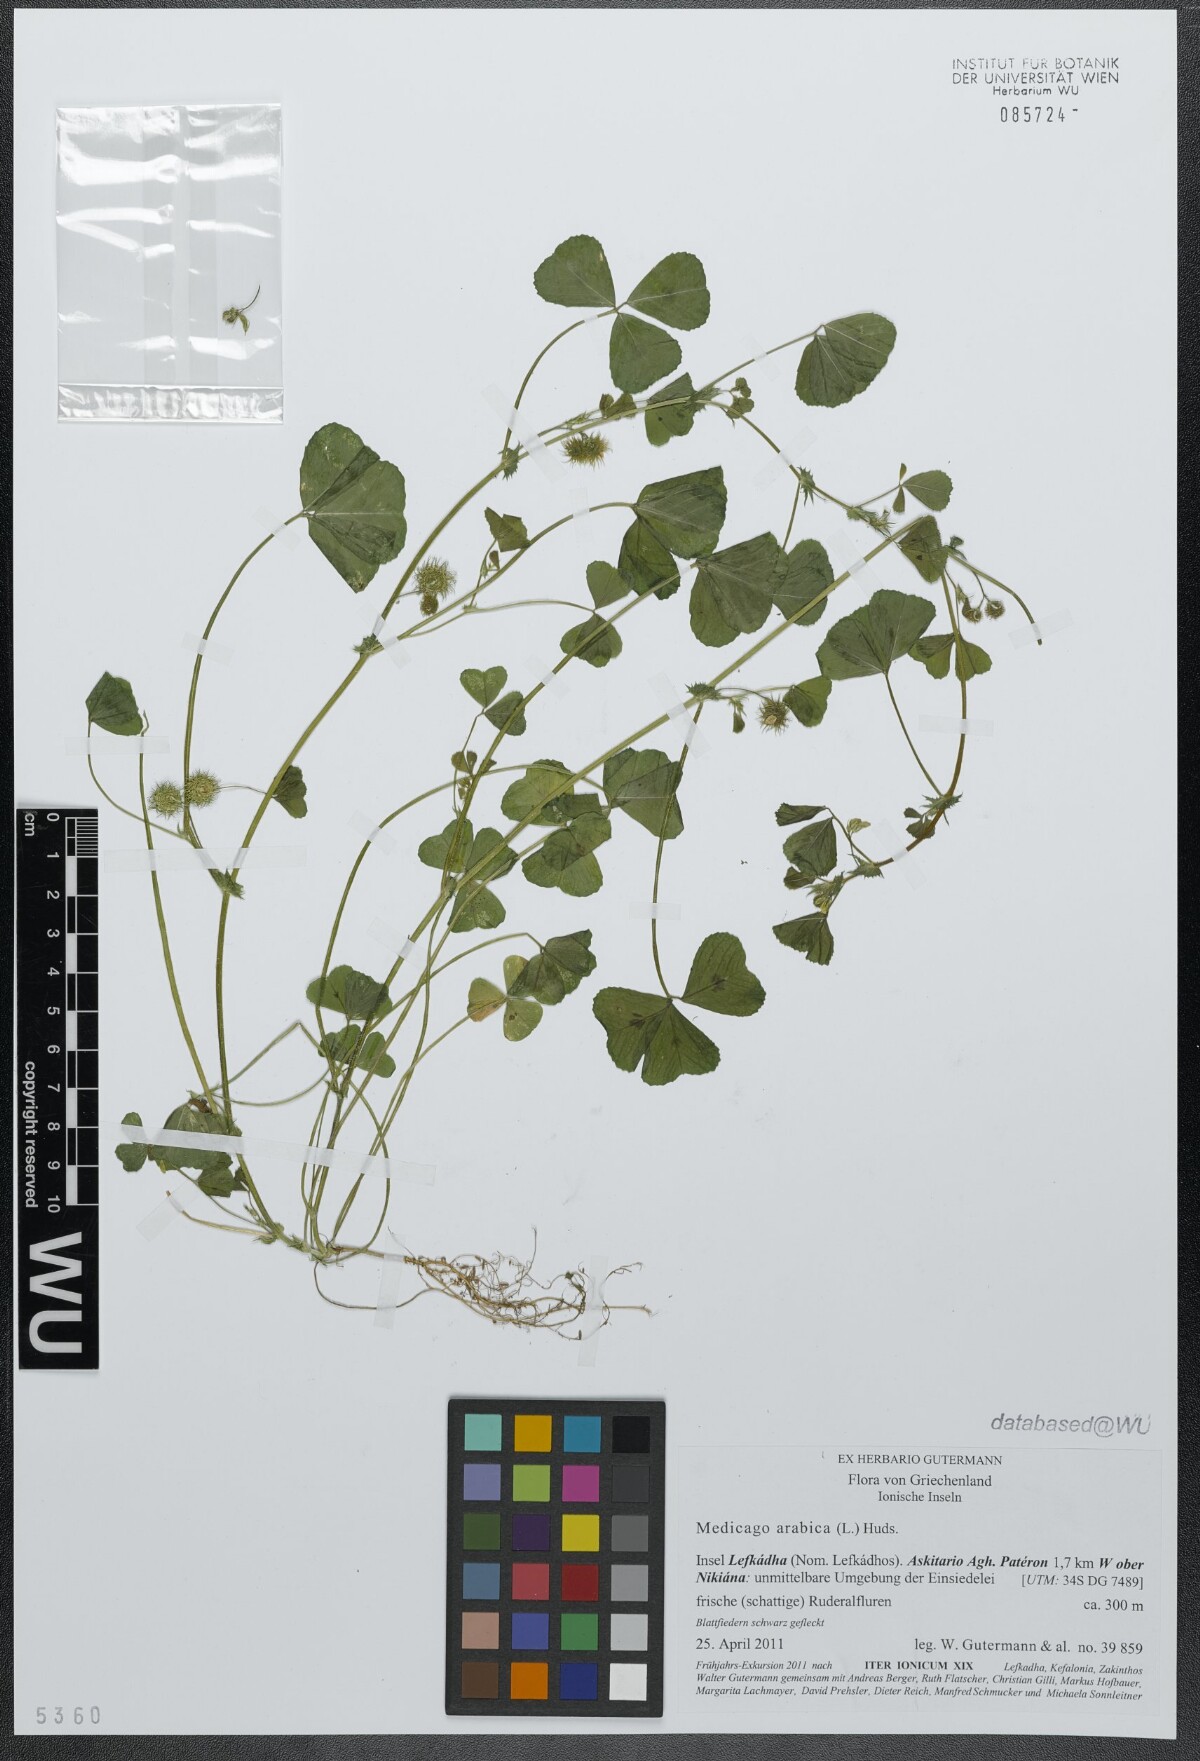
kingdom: Plantae
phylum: Tracheophyta
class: Magnoliopsida
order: Fabales
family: Fabaceae
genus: Medicago
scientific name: Medicago arabica
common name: Spotted medick
